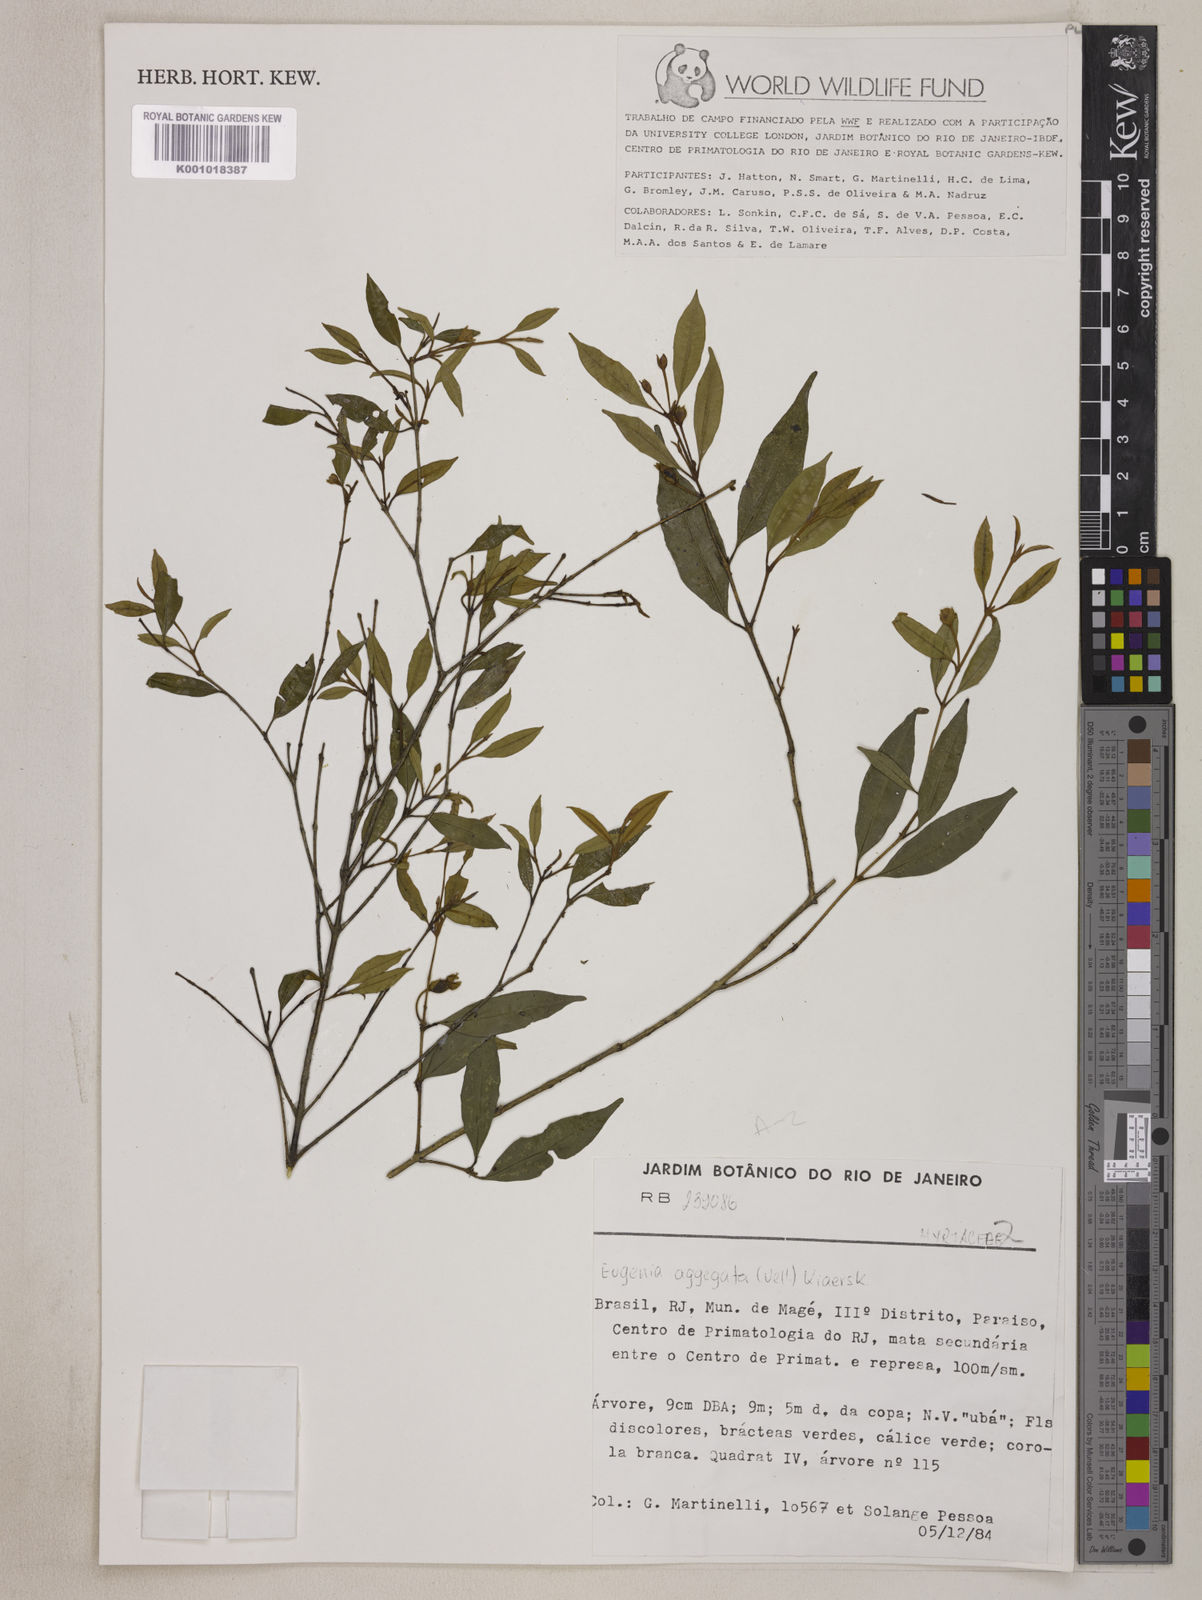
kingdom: Plantae
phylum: Tracheophyta
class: Magnoliopsida
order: Myrtales
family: Myrtaceae
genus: Eugenia
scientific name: Eugenia involucrata
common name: Cherry-of-the-rio grande
